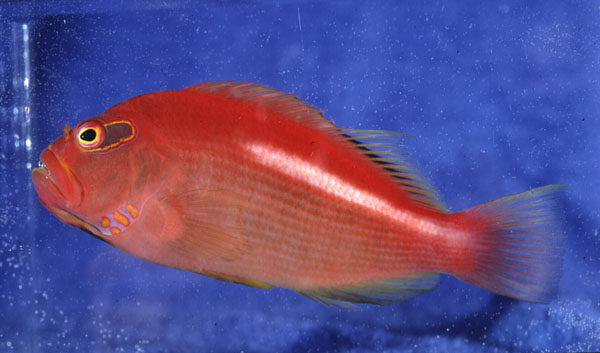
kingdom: Animalia
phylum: Chordata
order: Perciformes
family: Cirrhitidae
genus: Paracirrhites
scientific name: Paracirrhites arcatus
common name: Arc-eye hawkfish
